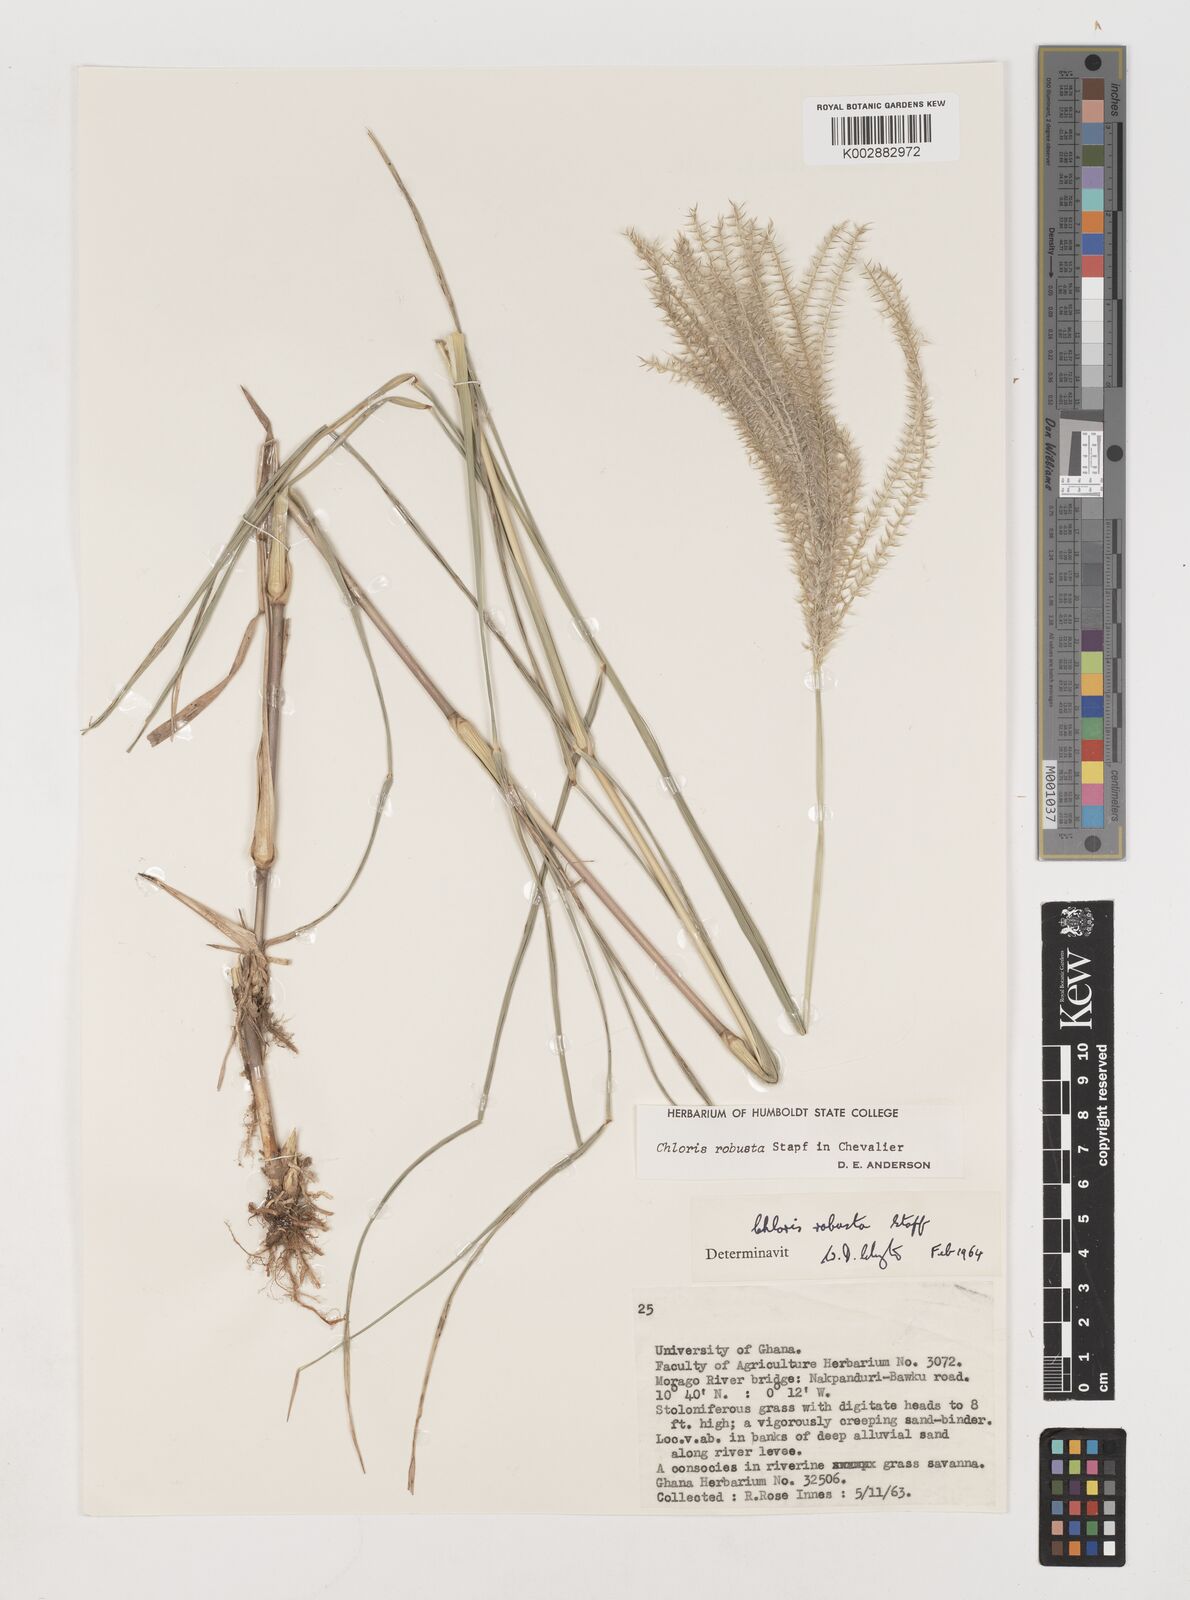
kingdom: Plantae
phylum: Tracheophyta
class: Liliopsida
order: Poales
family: Poaceae
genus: Chloris
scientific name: Chloris robusta
